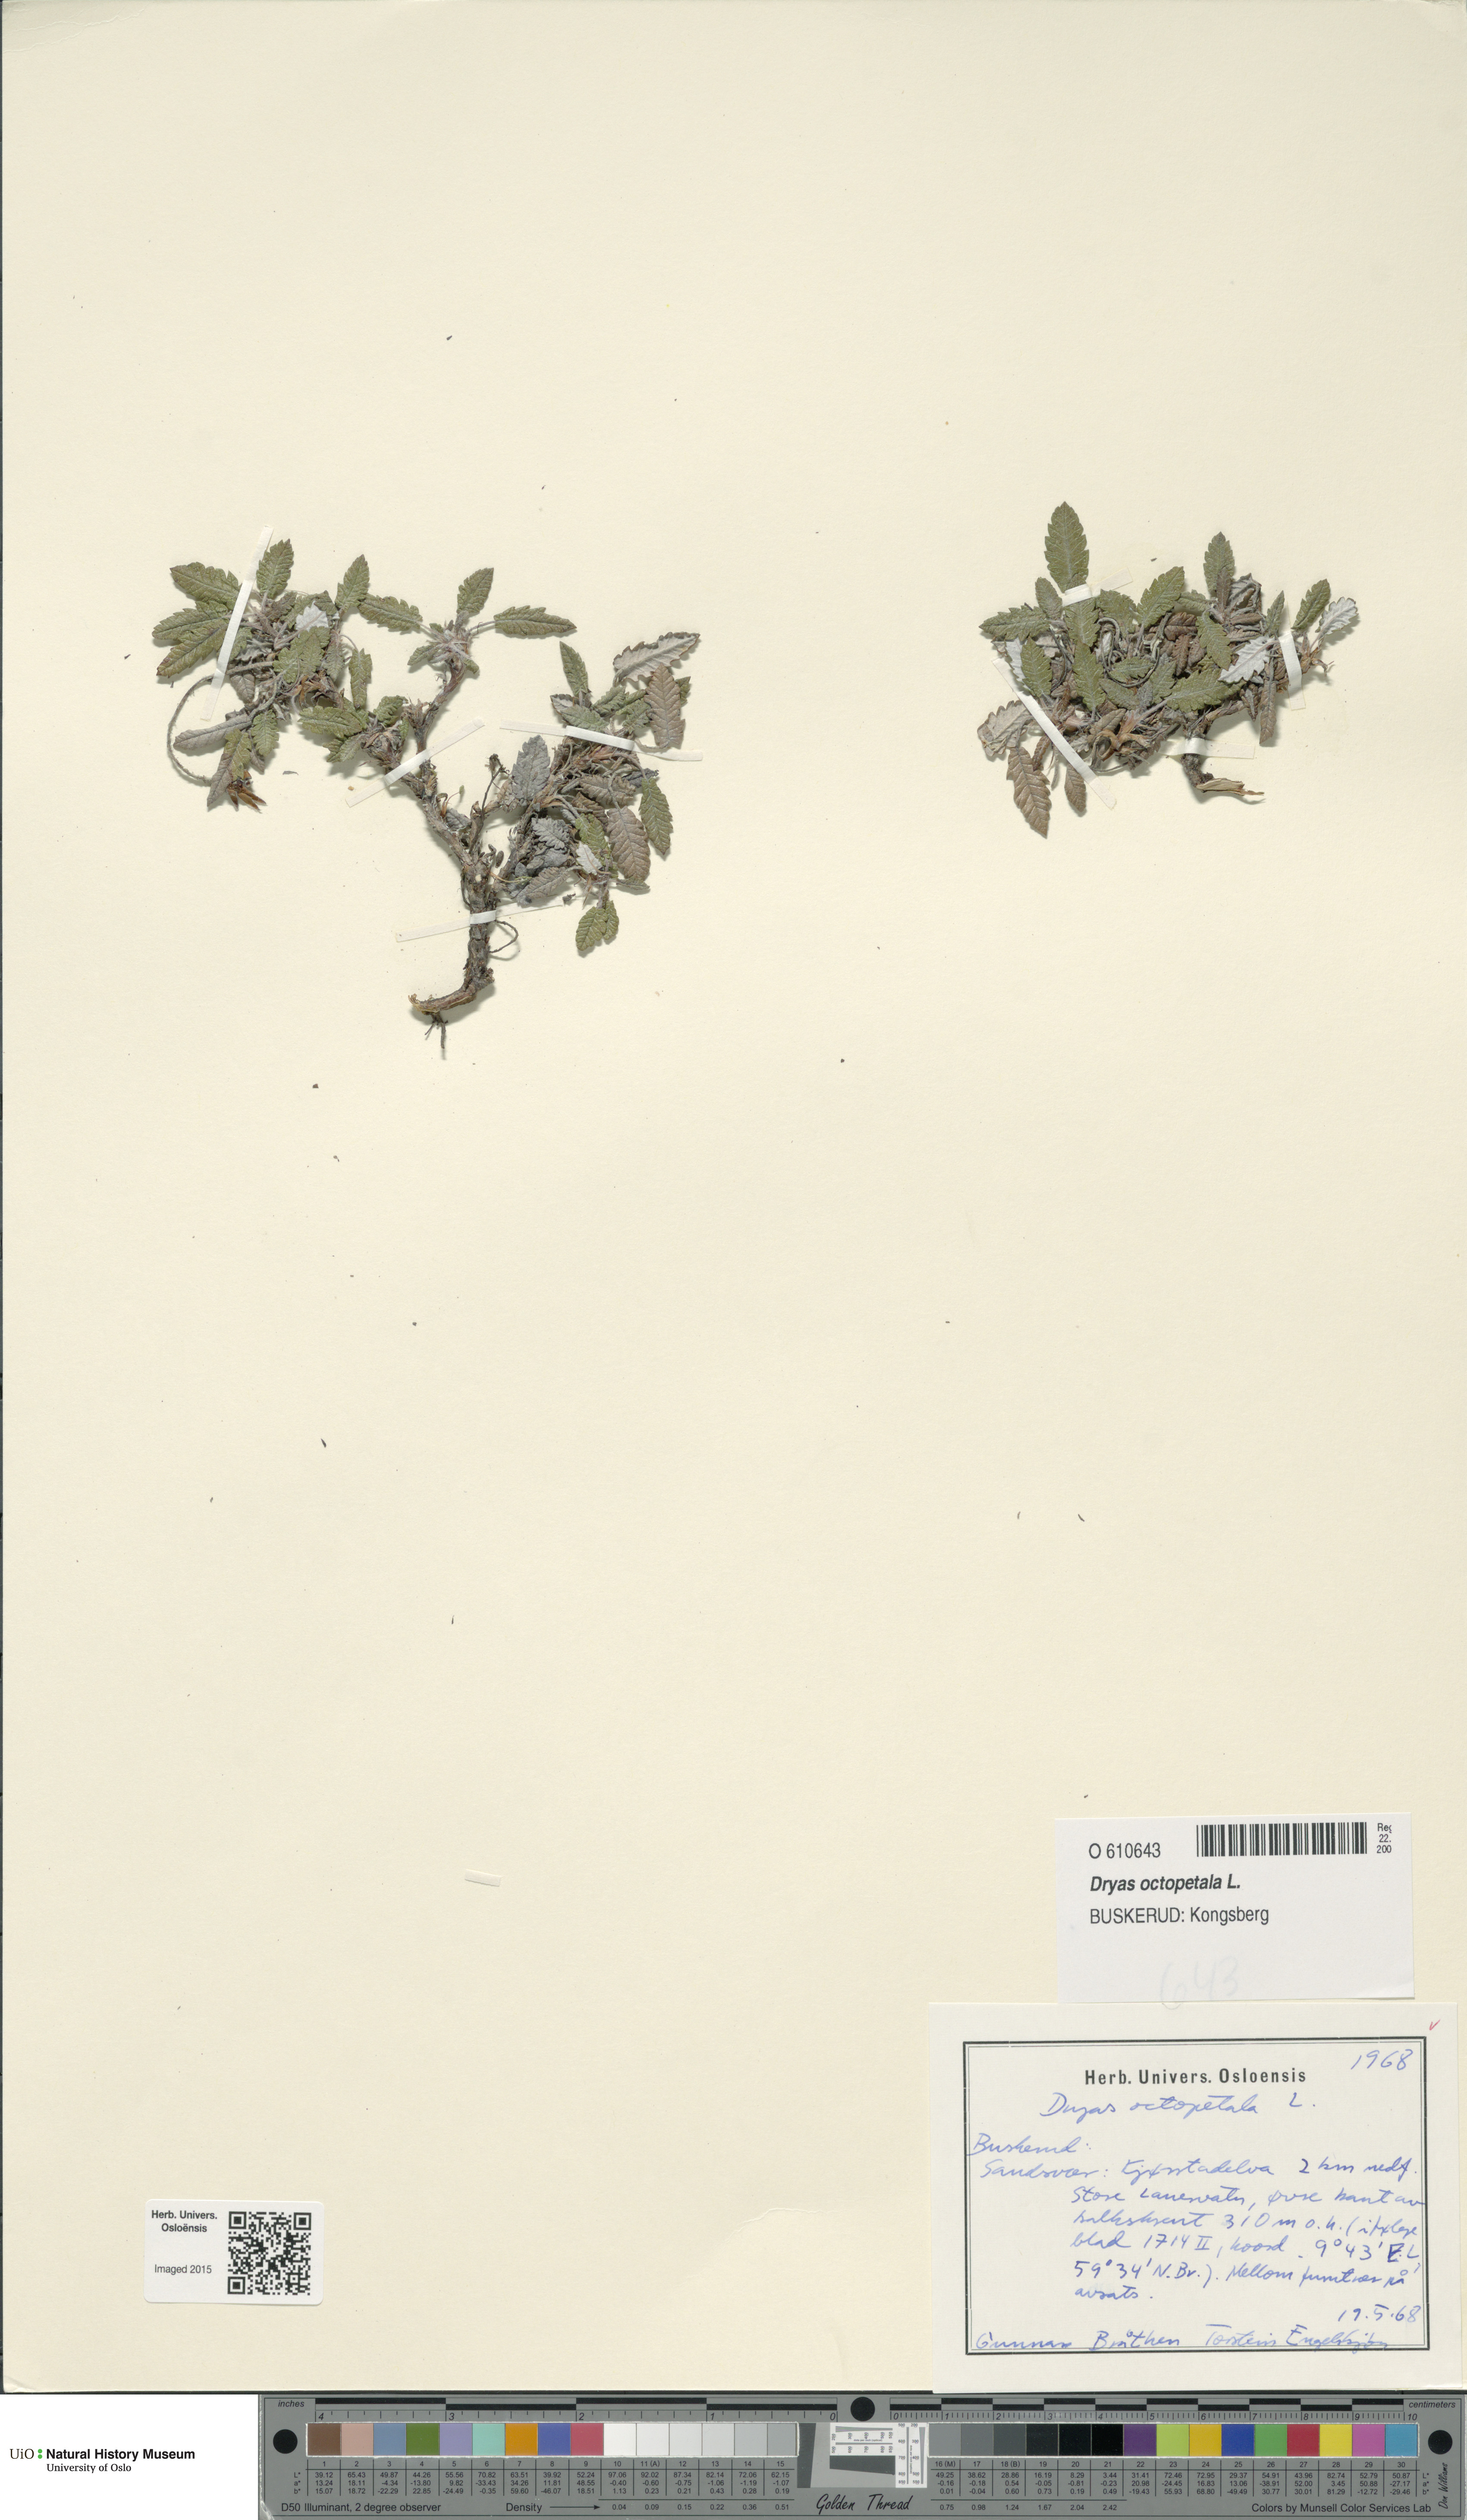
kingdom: Plantae
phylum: Tracheophyta
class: Magnoliopsida
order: Rosales
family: Rosaceae
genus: Dryas
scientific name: Dryas octopetala
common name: Eight-petal mountain-avens
